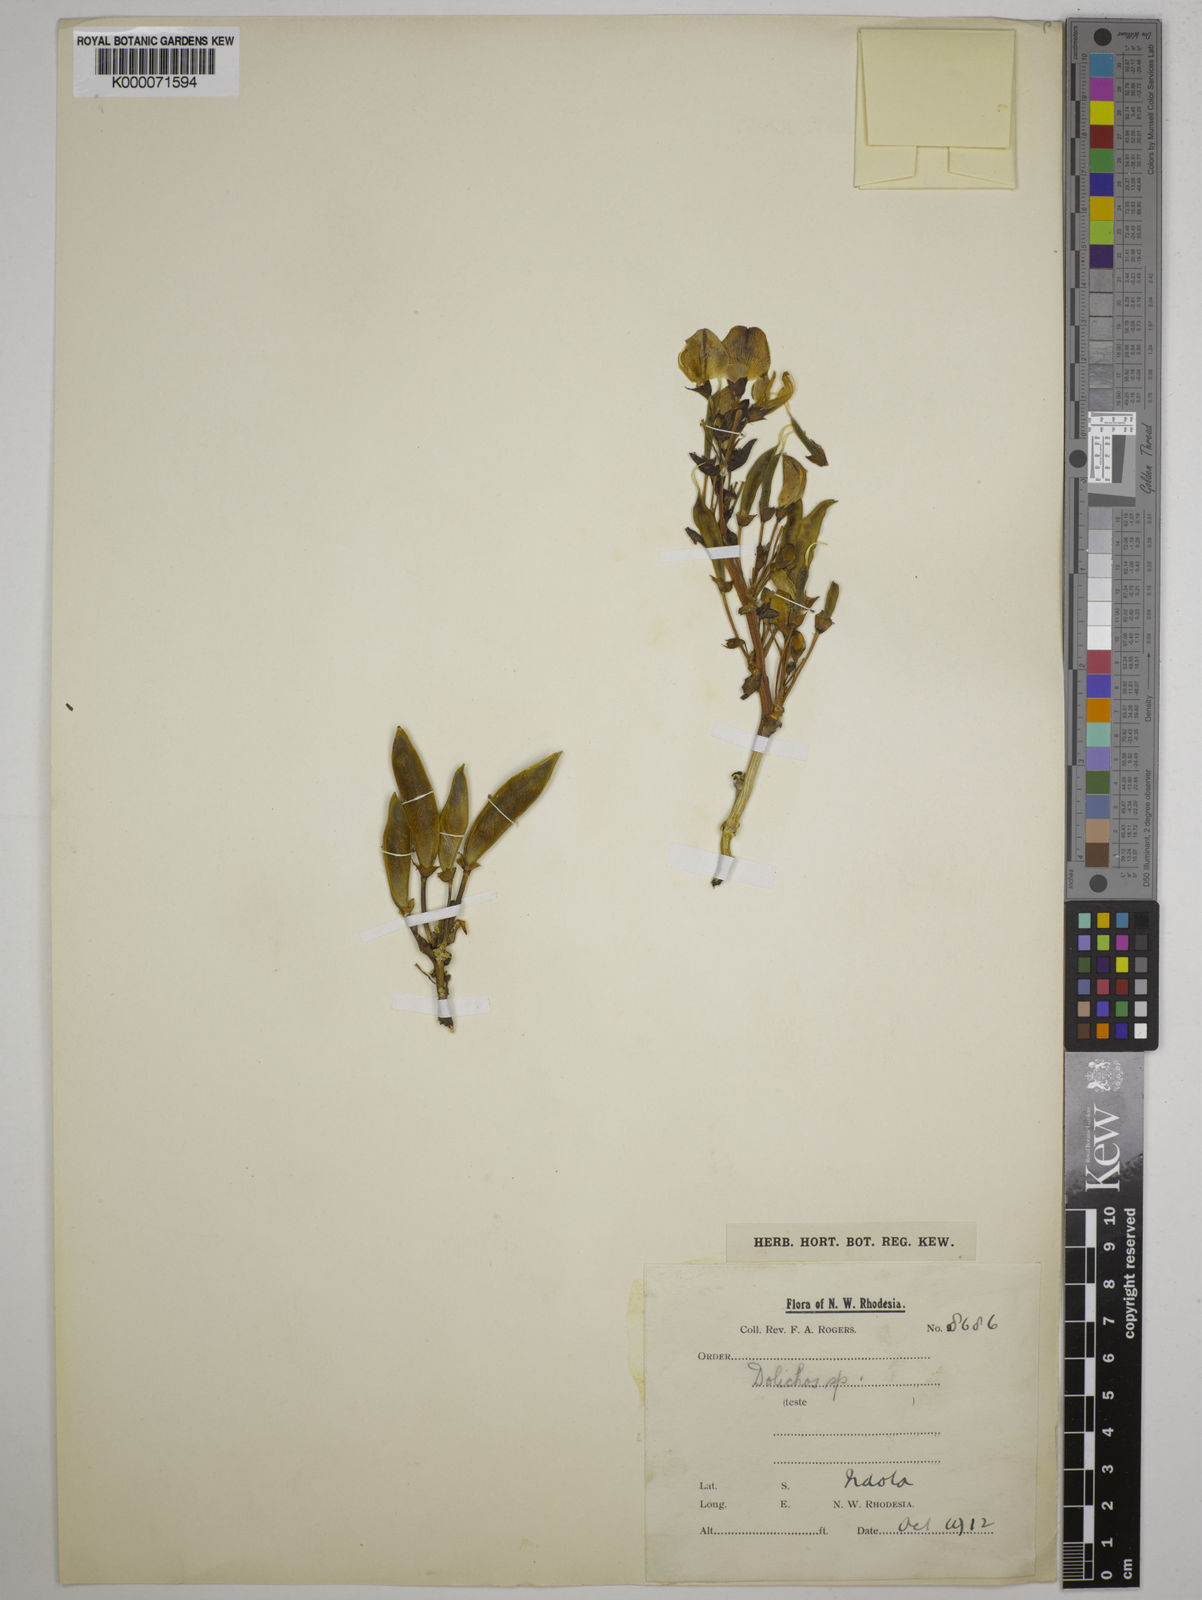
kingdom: Plantae
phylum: Tracheophyta
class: Magnoliopsida
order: Fabales
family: Fabaceae
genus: Dolichos
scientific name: Dolichos gululu
